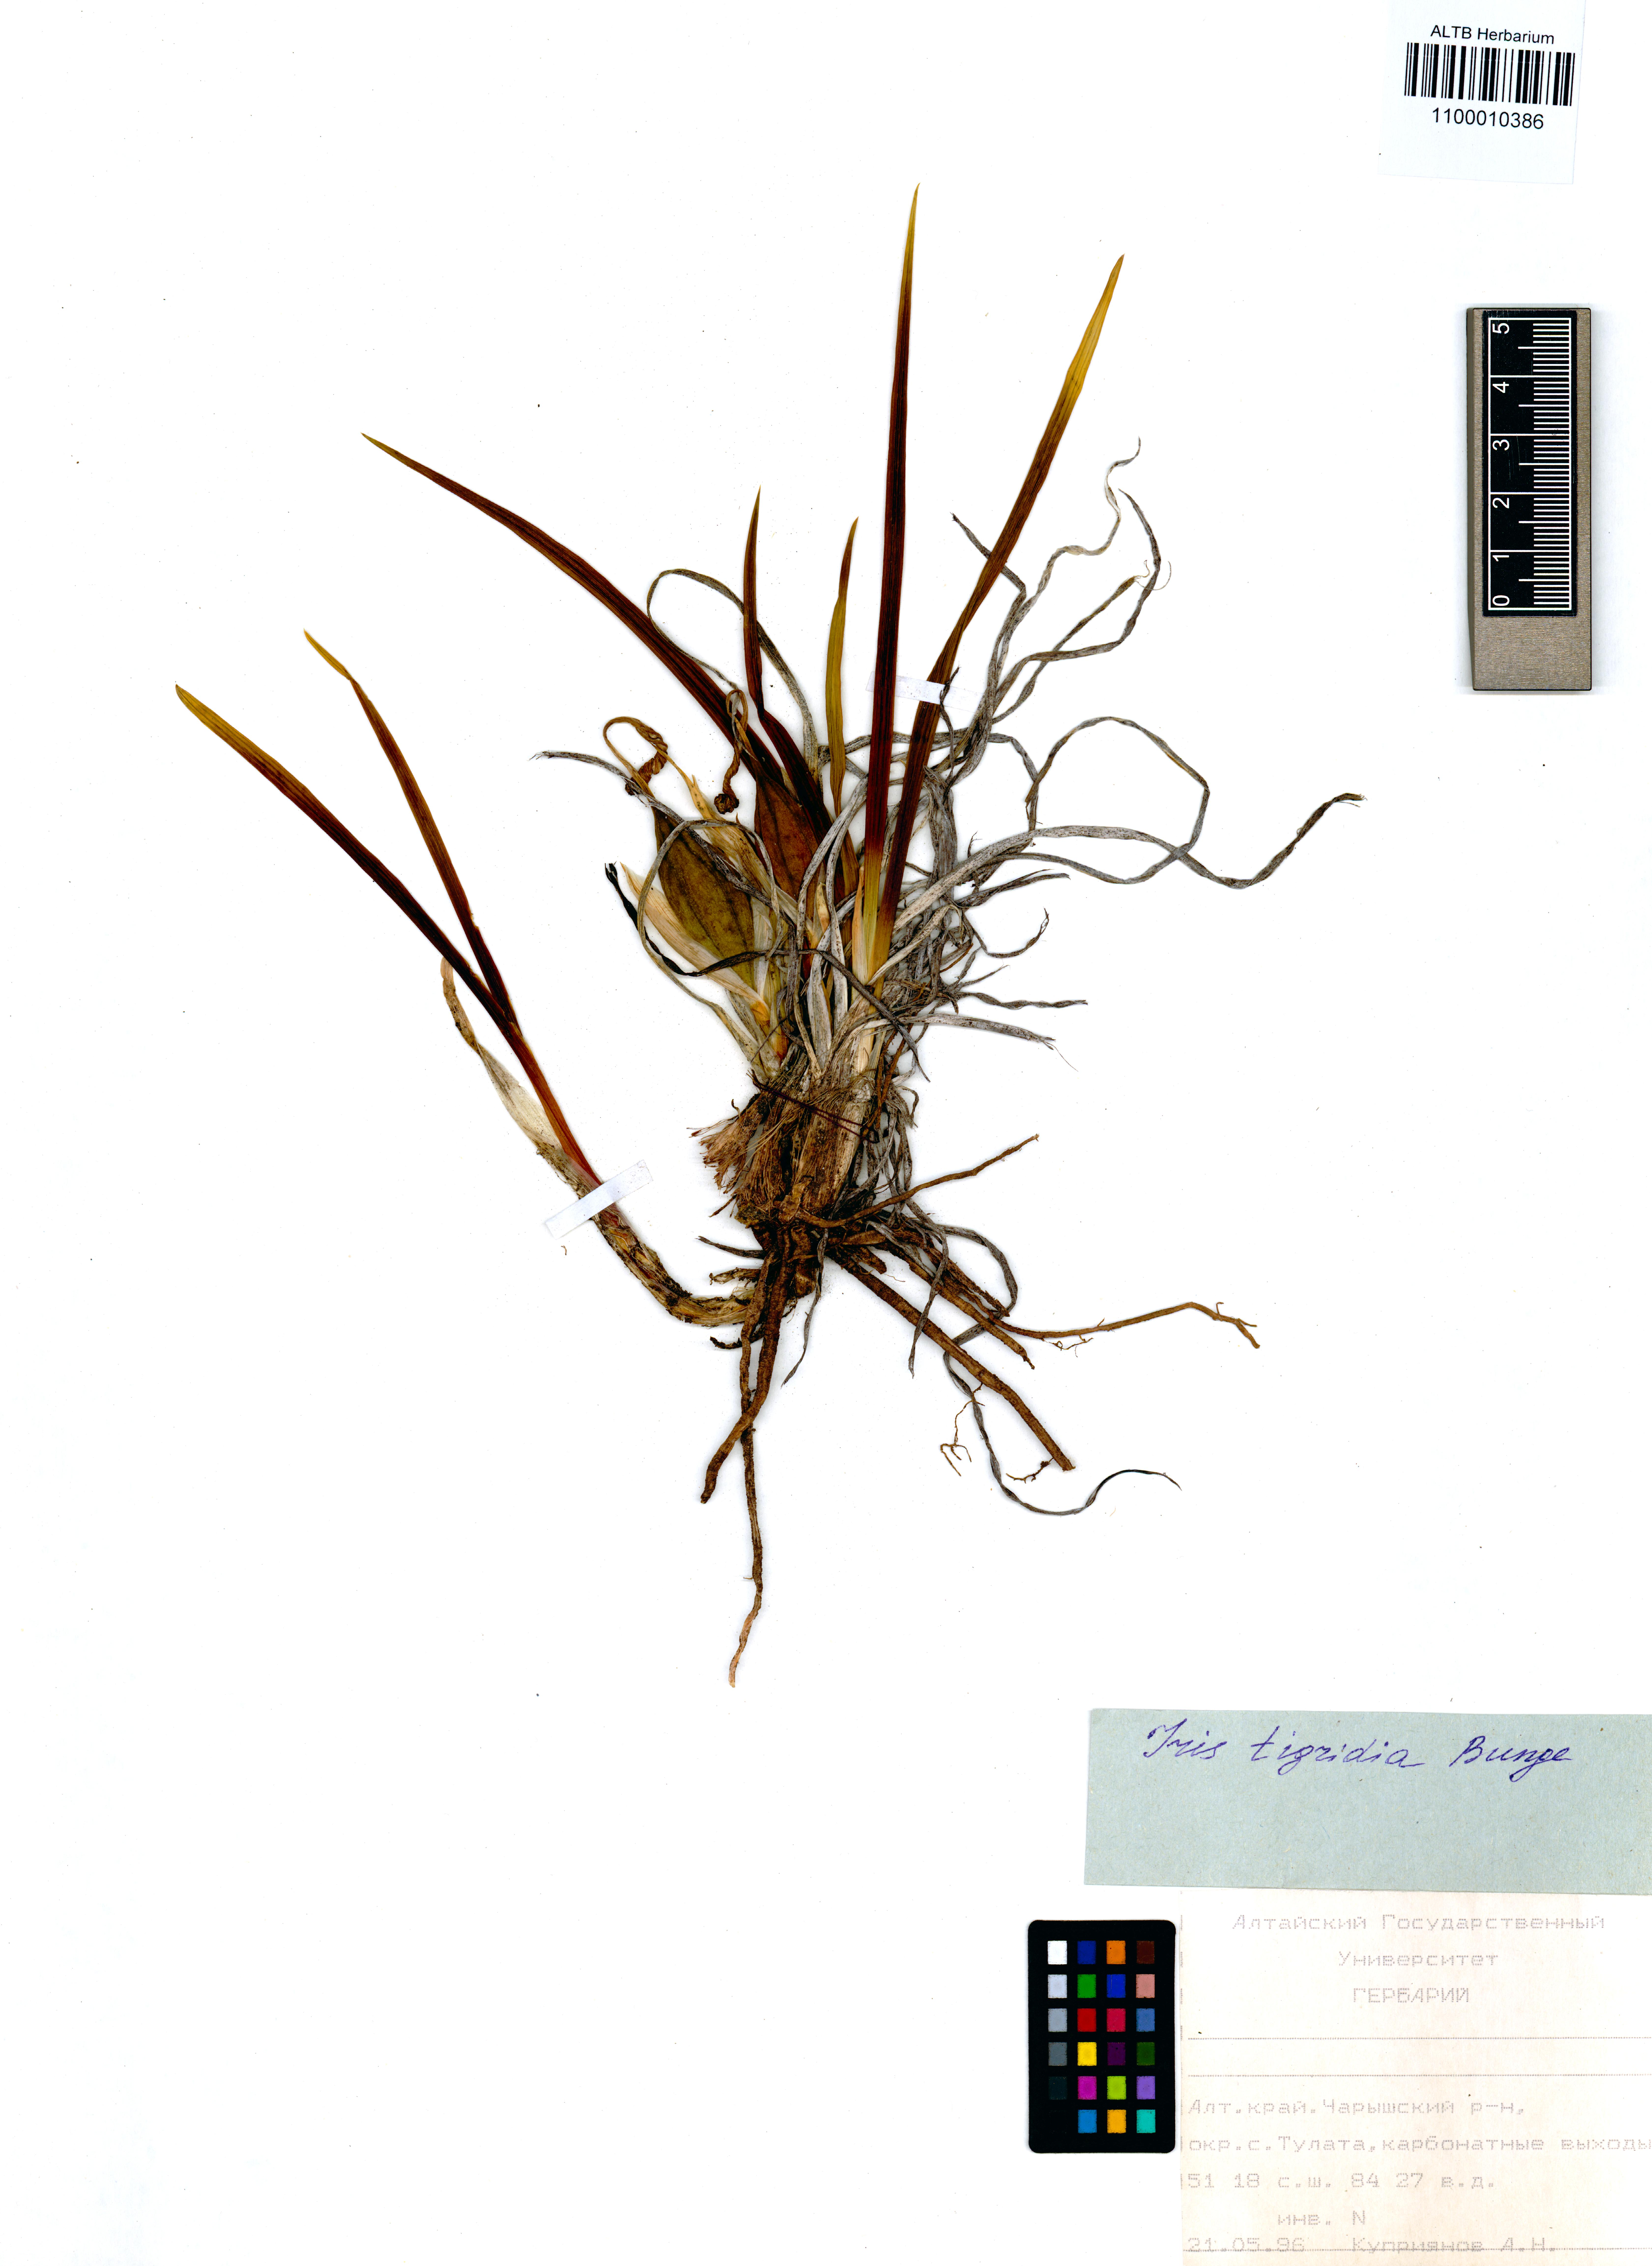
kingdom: Plantae
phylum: Tracheophyta
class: Liliopsida
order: Asparagales
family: Iridaceae
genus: Iris
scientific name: Iris tigridia
